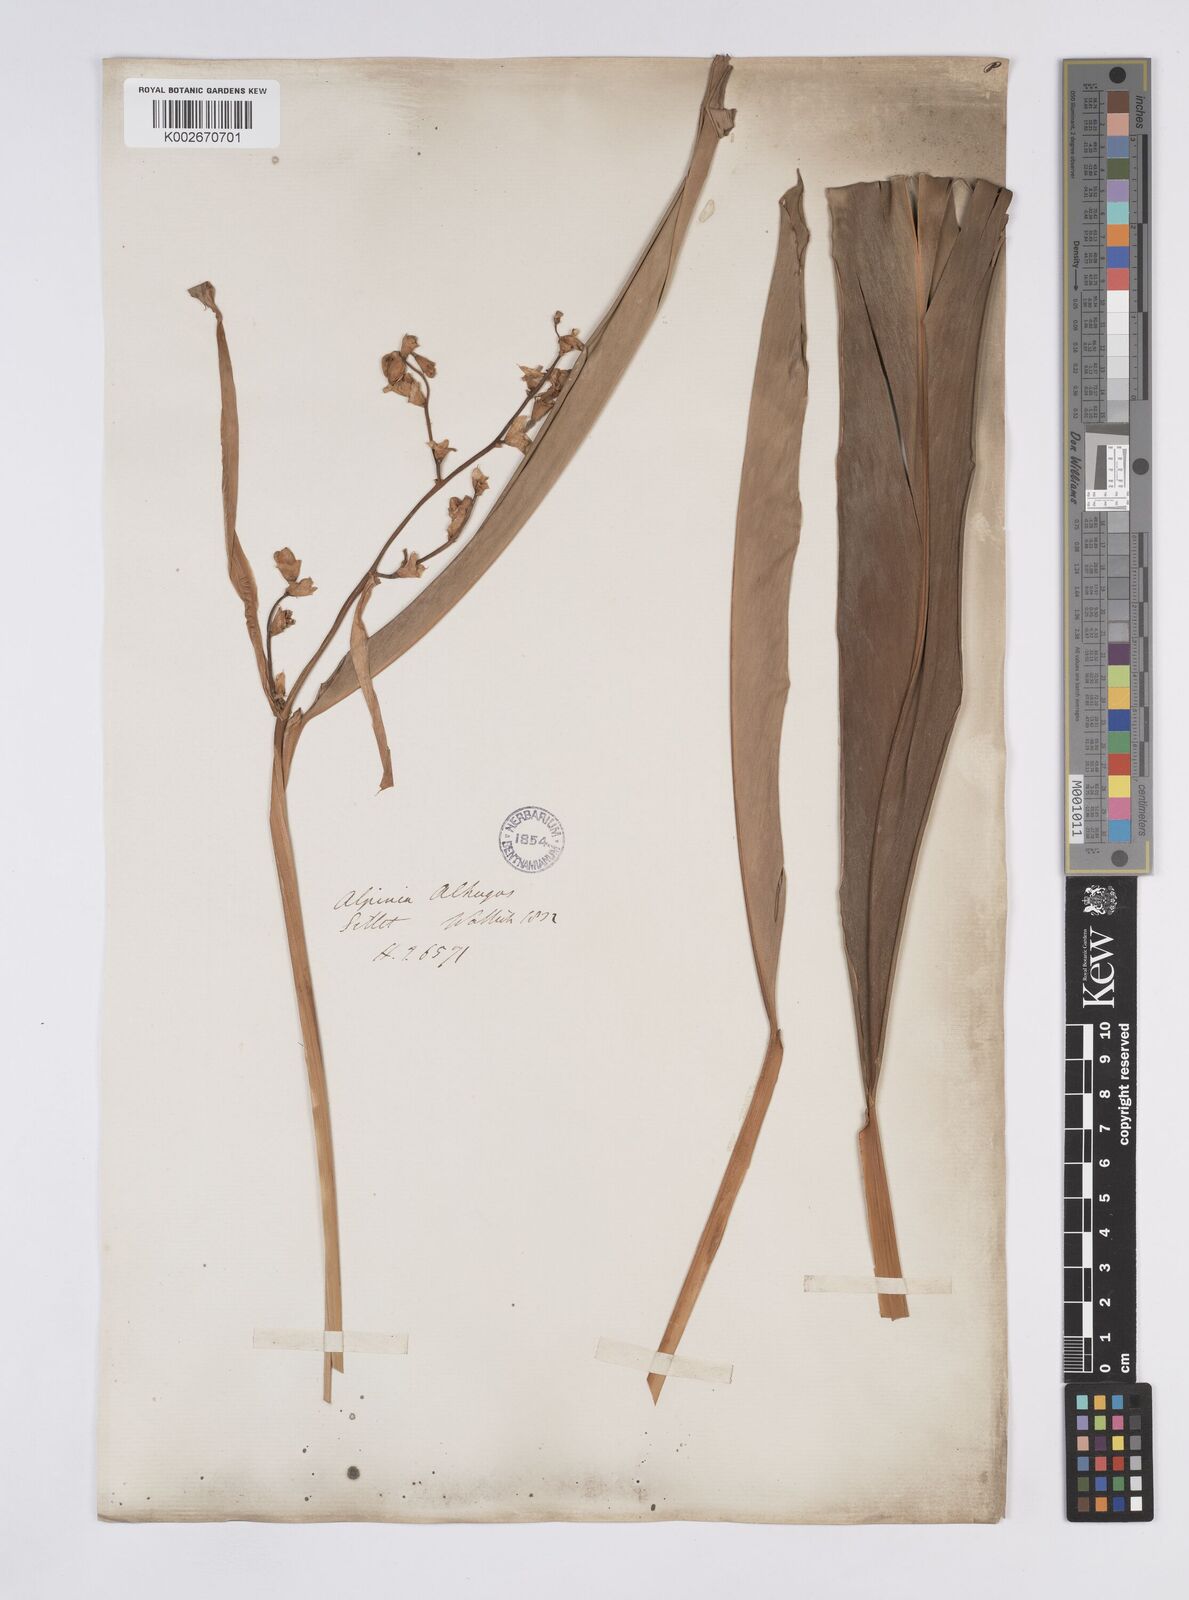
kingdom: Plantae
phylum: Tracheophyta
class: Liliopsida
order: Zingiberales
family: Zingiberaceae
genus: Alpinia
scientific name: Alpinia nigra
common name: Black fruited galanga
